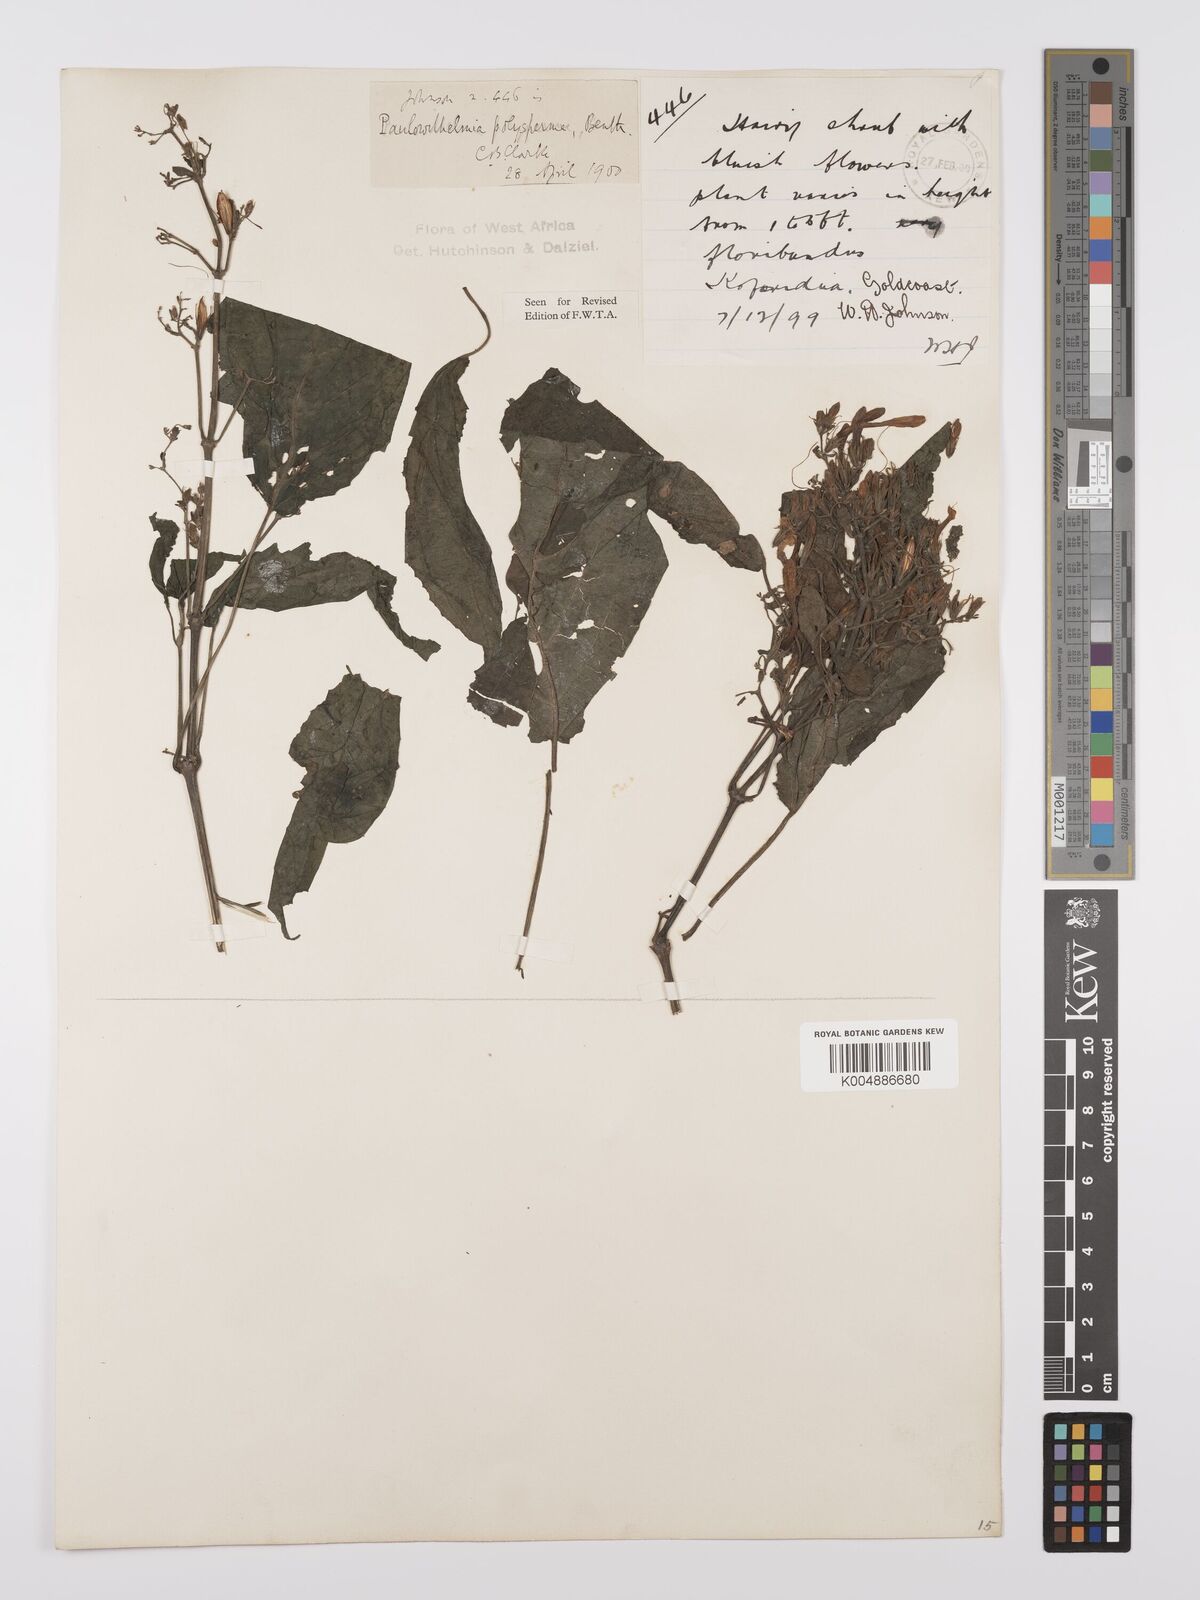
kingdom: Plantae
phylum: Tracheophyta
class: Magnoliopsida
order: Lamiales
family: Acanthaceae
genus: Eremomastax
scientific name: Eremomastax speciosa
